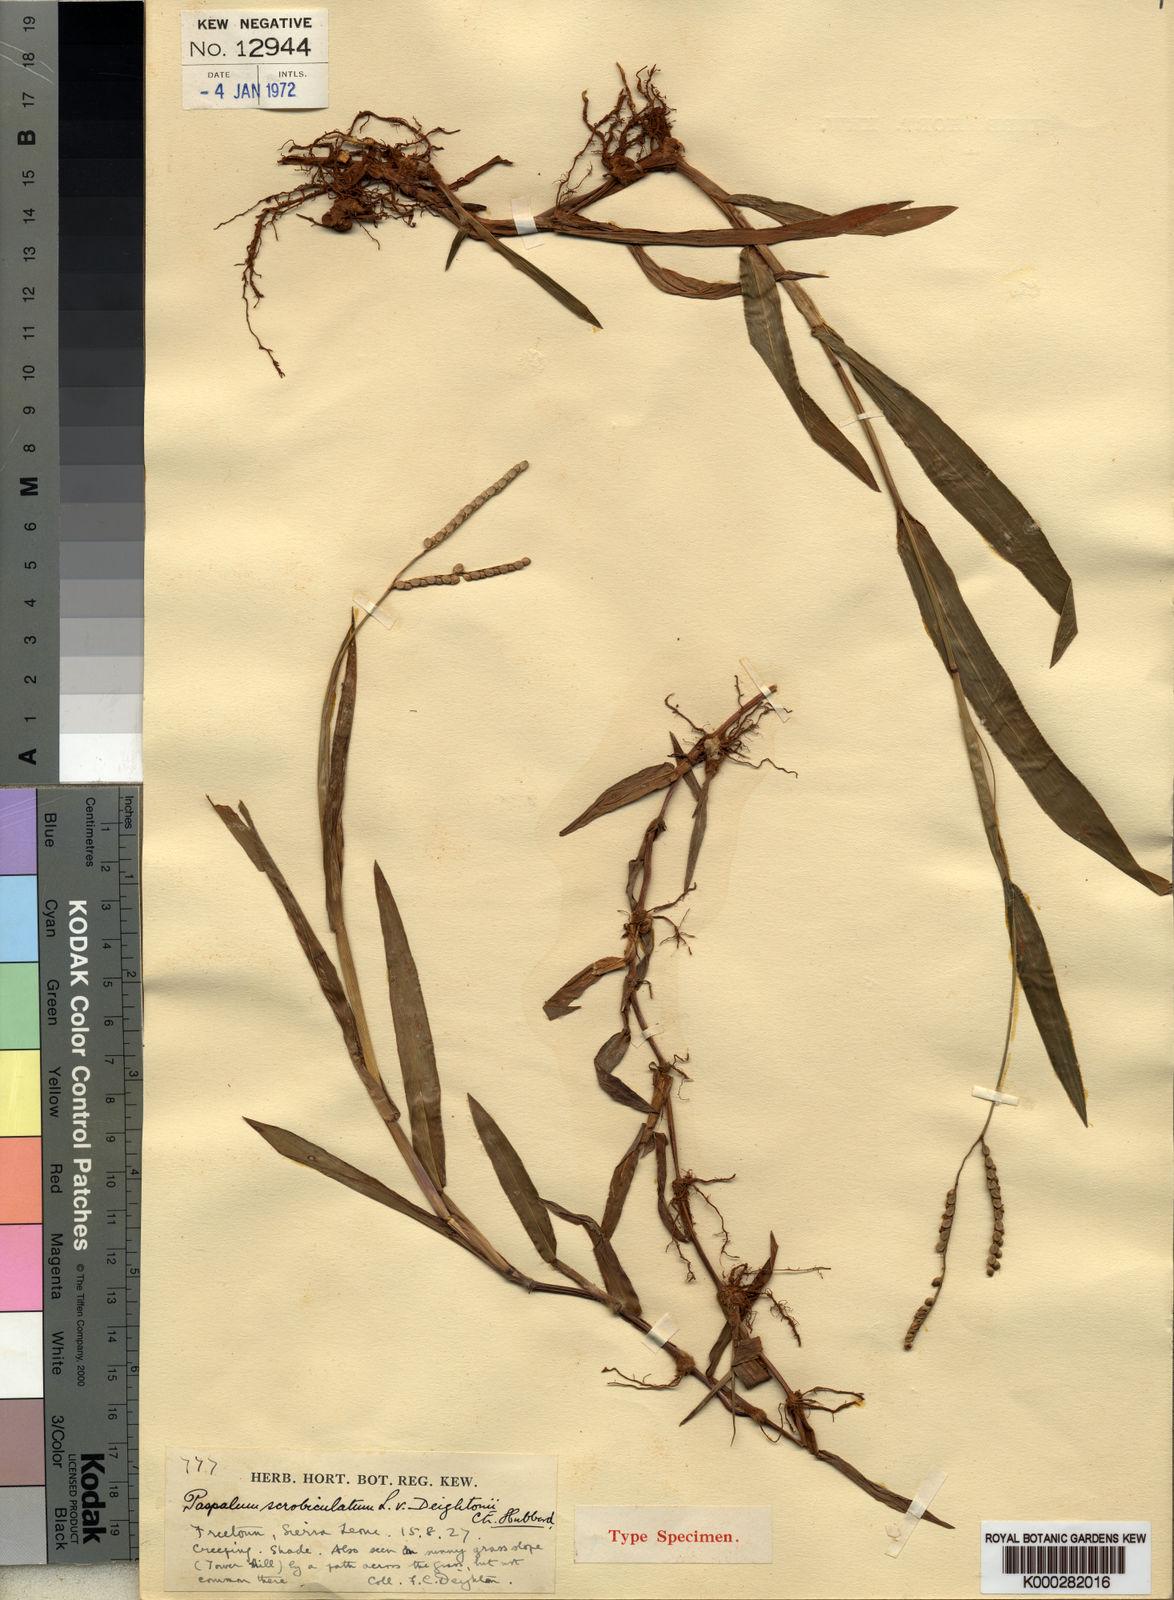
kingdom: Plantae
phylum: Tracheophyta
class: Liliopsida
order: Poales
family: Poaceae
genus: Paspalum
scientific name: Paspalum scrobiculatum
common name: Kodo millet
